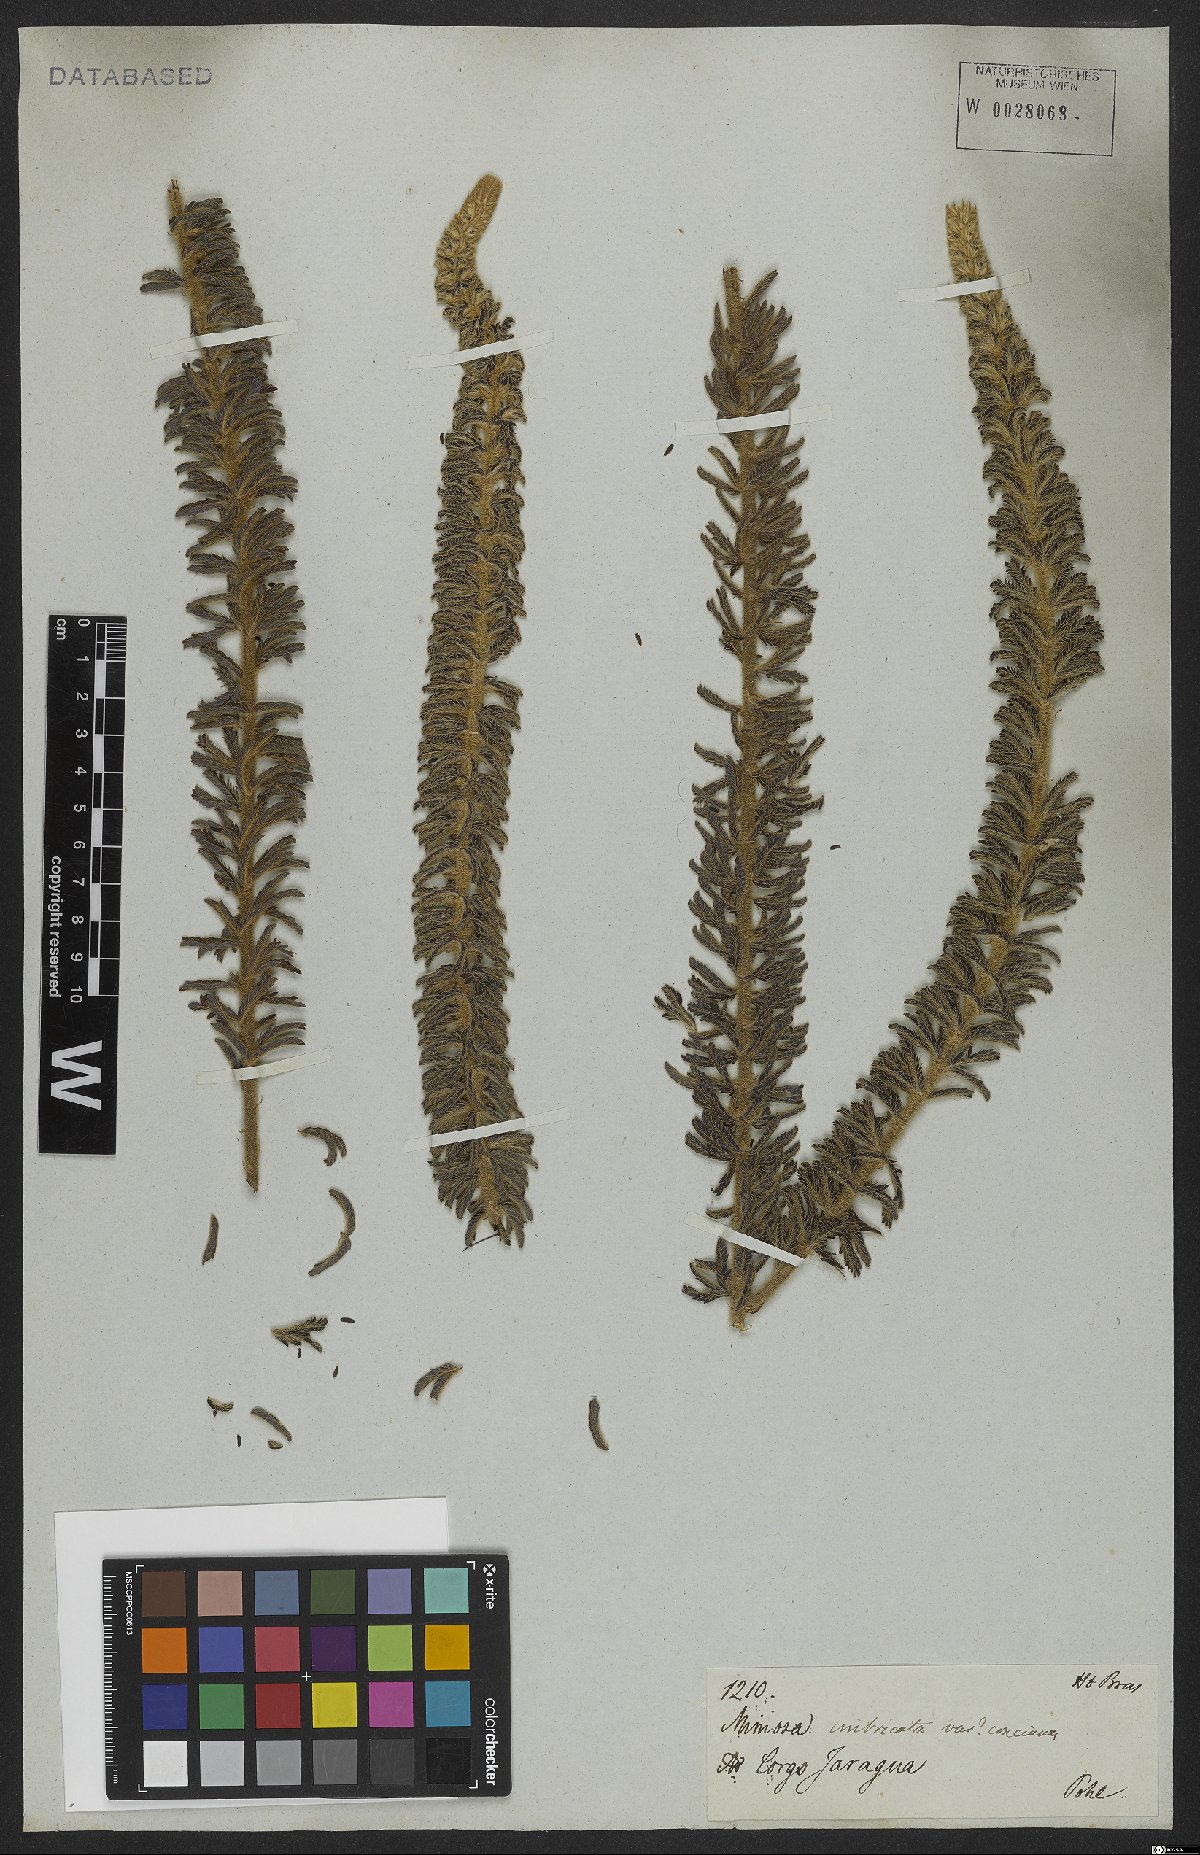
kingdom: Plantae
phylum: Tracheophyta
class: Magnoliopsida
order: Fabales
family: Fabaceae
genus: Mimosa
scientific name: Mimosa radula
